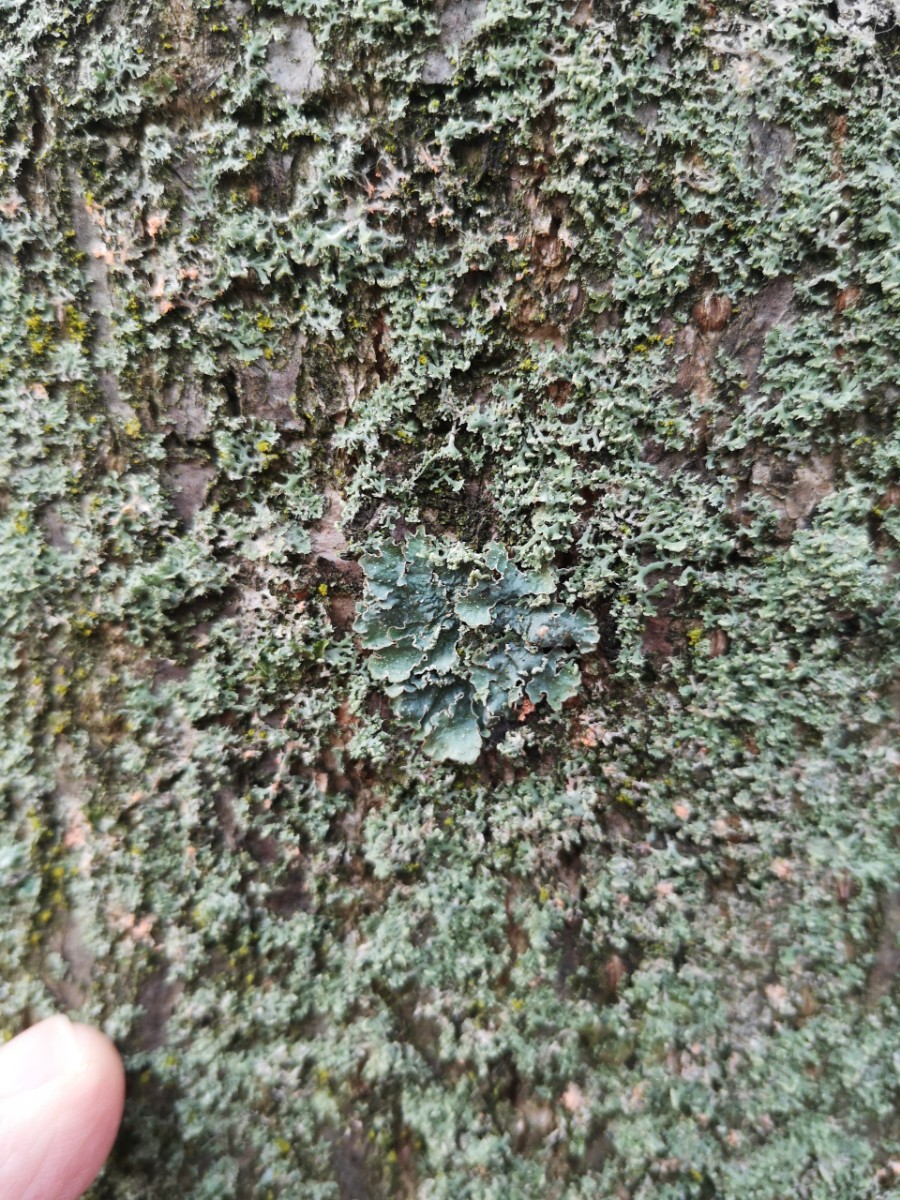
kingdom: Fungi
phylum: Ascomycota
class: Lecanoromycetes
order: Lecanorales
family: Parmeliaceae
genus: Punctelia
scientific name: Punctelia jeckeri
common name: randstøvet skållav
